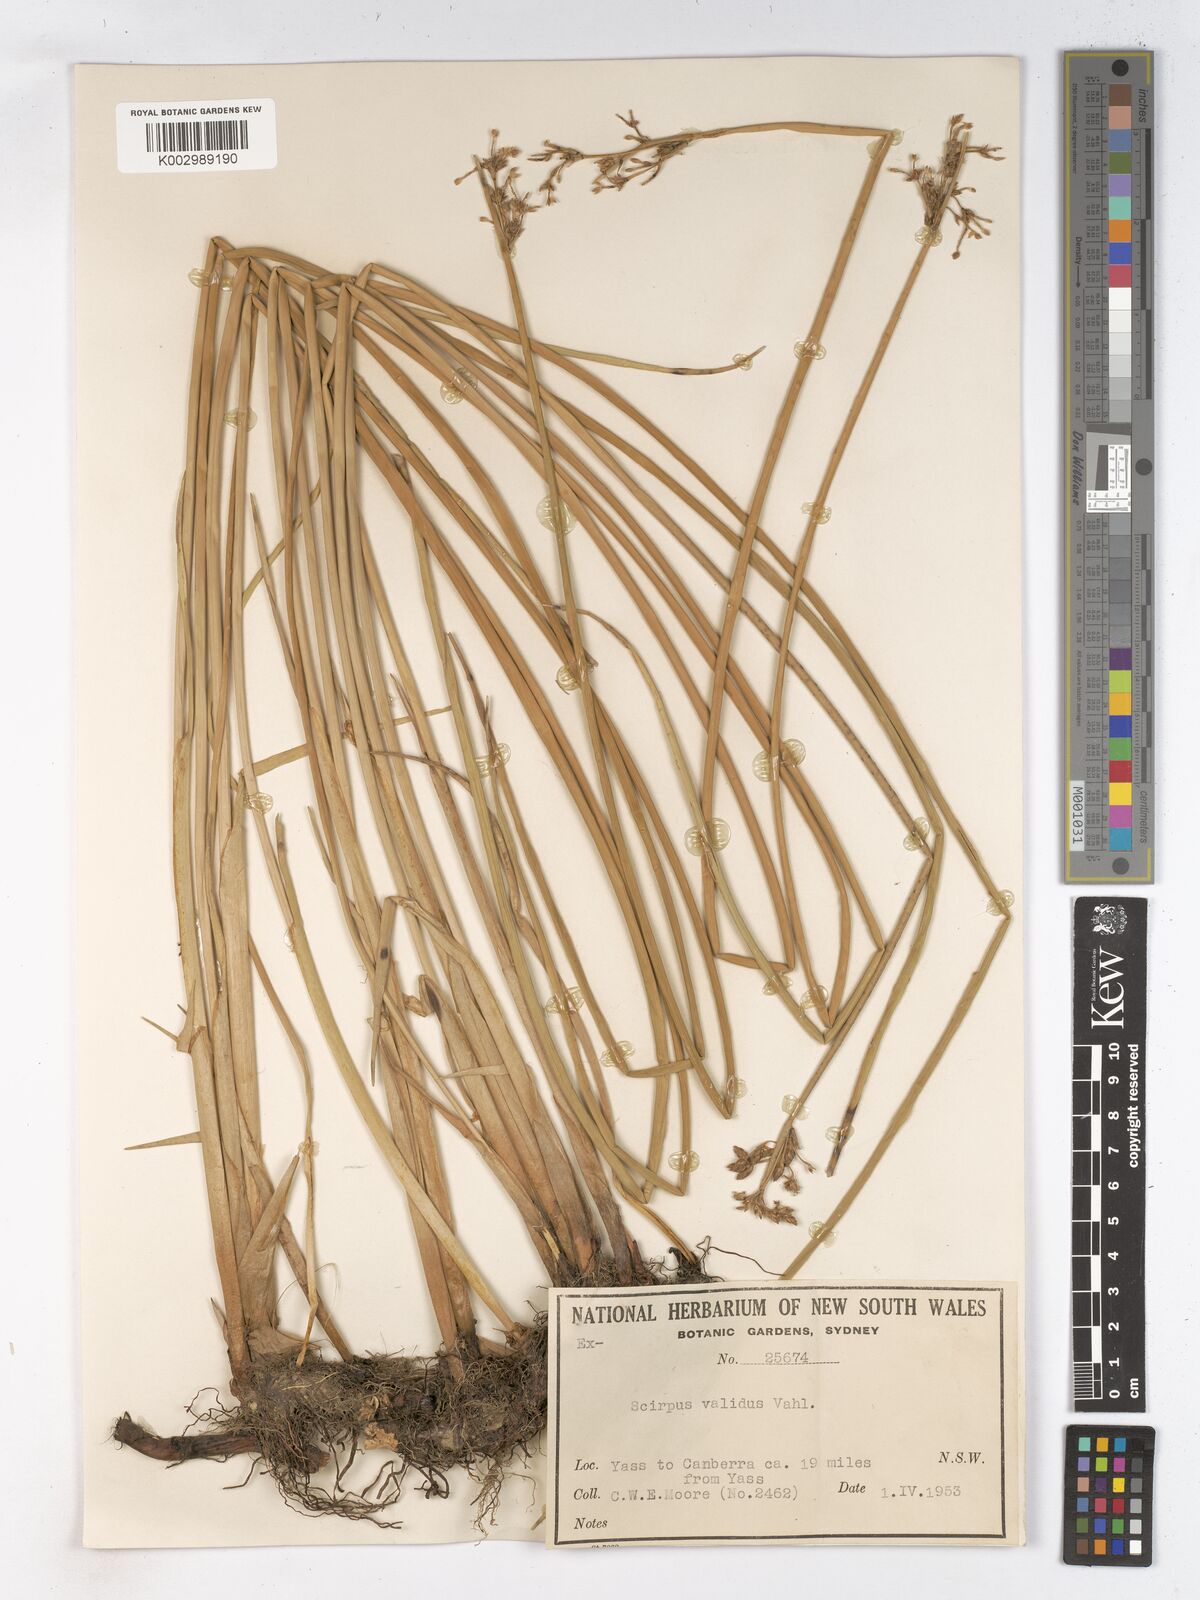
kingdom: Plantae
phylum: Tracheophyta
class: Liliopsida
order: Poales
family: Cyperaceae
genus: Schoenoplectus
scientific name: Schoenoplectus lacustris
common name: Common club-rush
